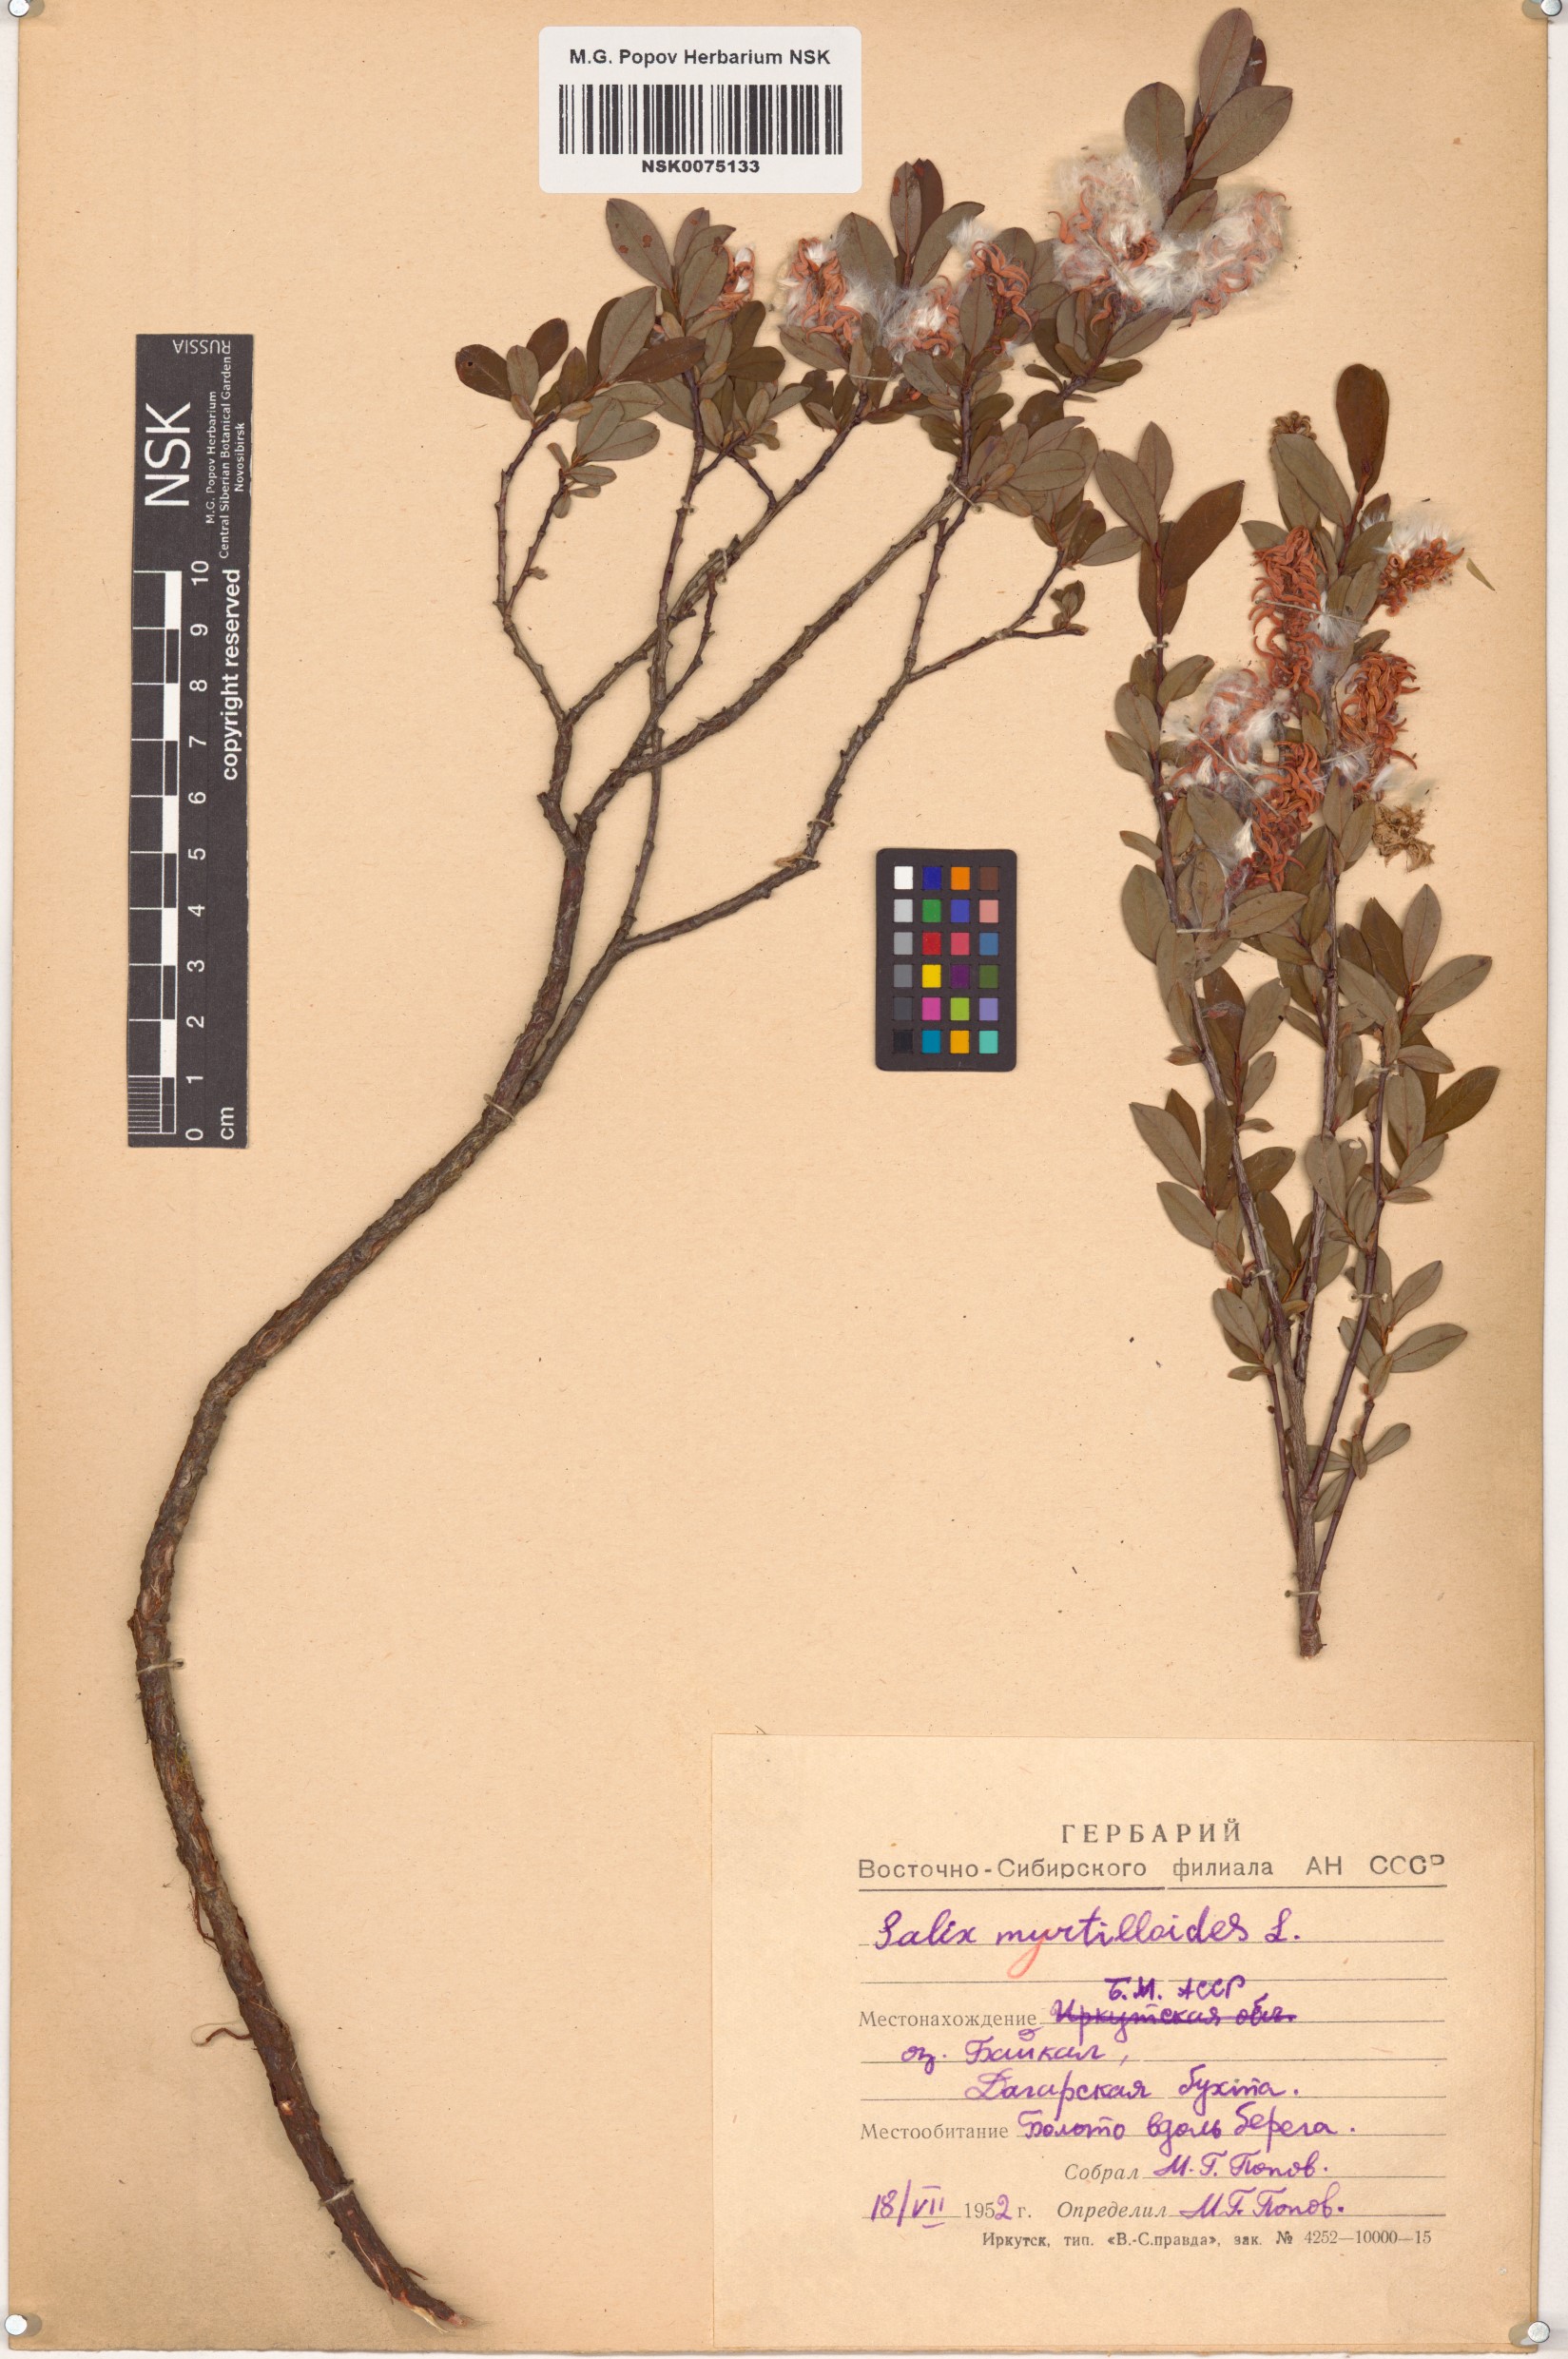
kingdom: Plantae
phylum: Tracheophyta
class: Magnoliopsida
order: Malpighiales
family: Salicaceae
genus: Salix
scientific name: Salix myrtilloides
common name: Myrtle-leaved willow
